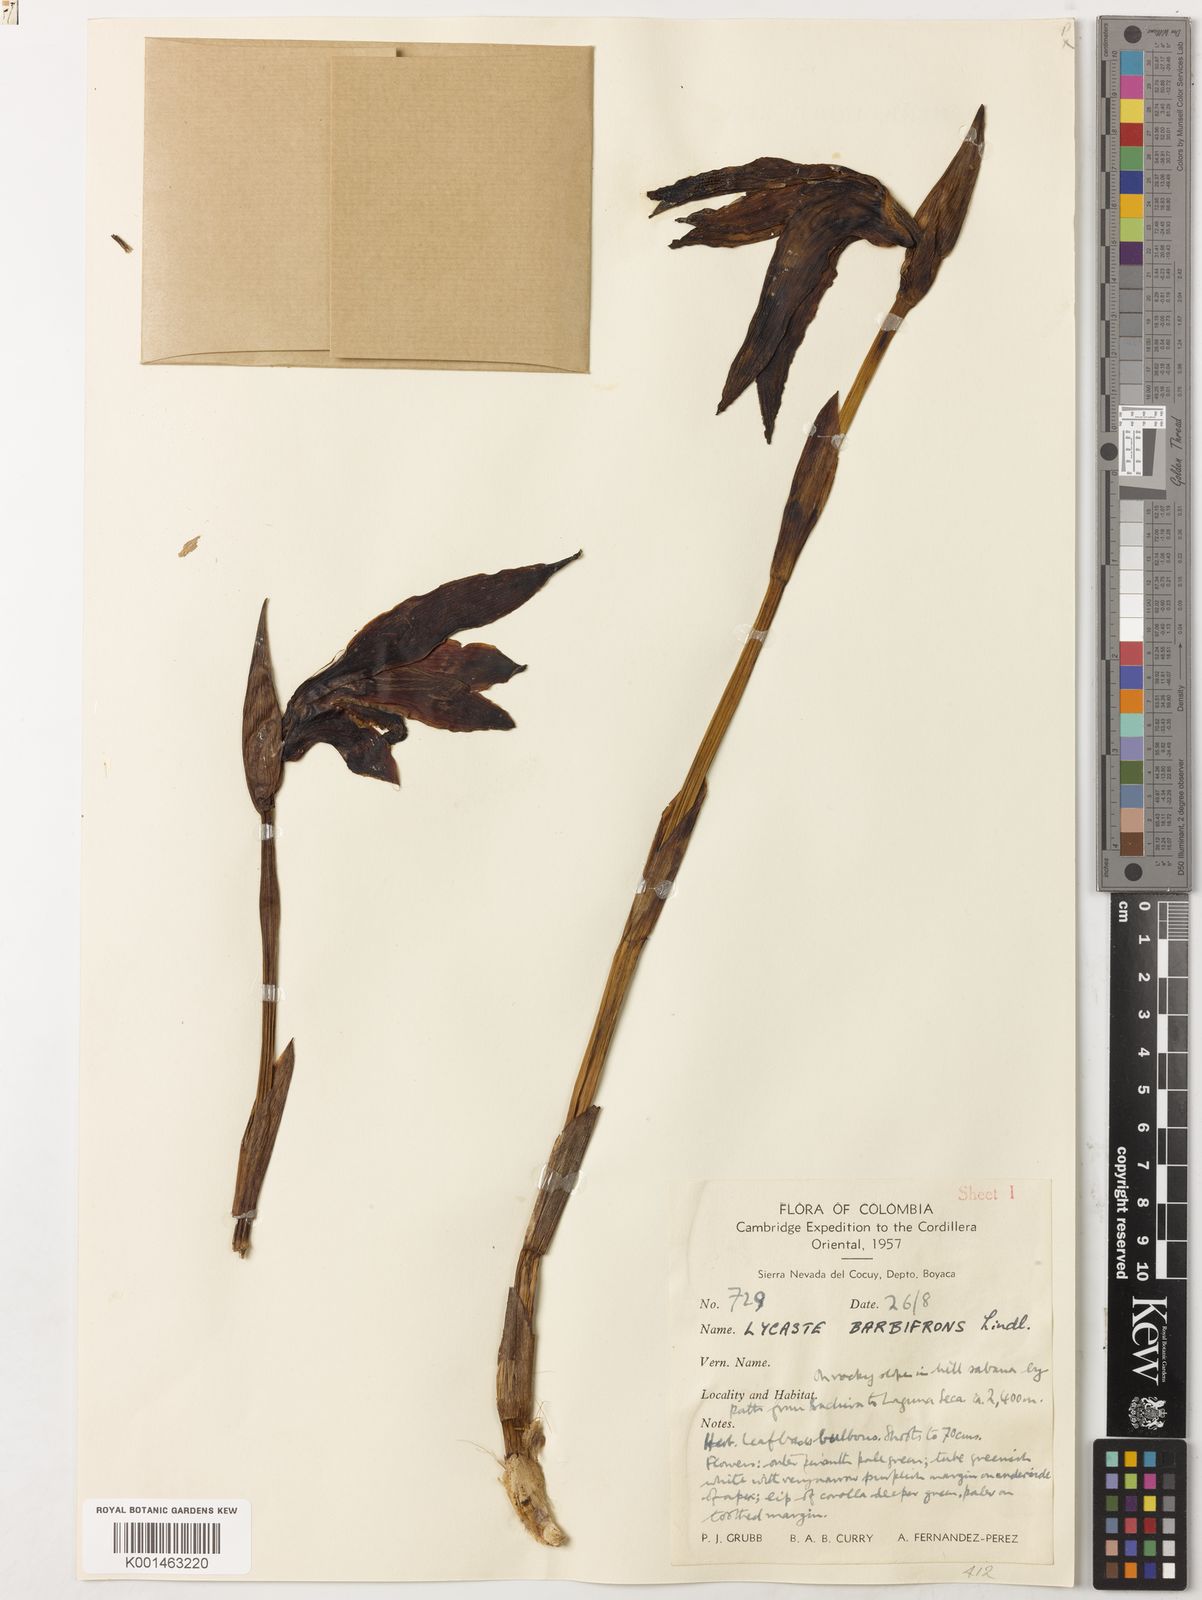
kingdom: Plantae
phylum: Tracheophyta
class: Liliopsida
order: Asparagales
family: Orchidaceae
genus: Ida
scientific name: Ida heynderycxii
